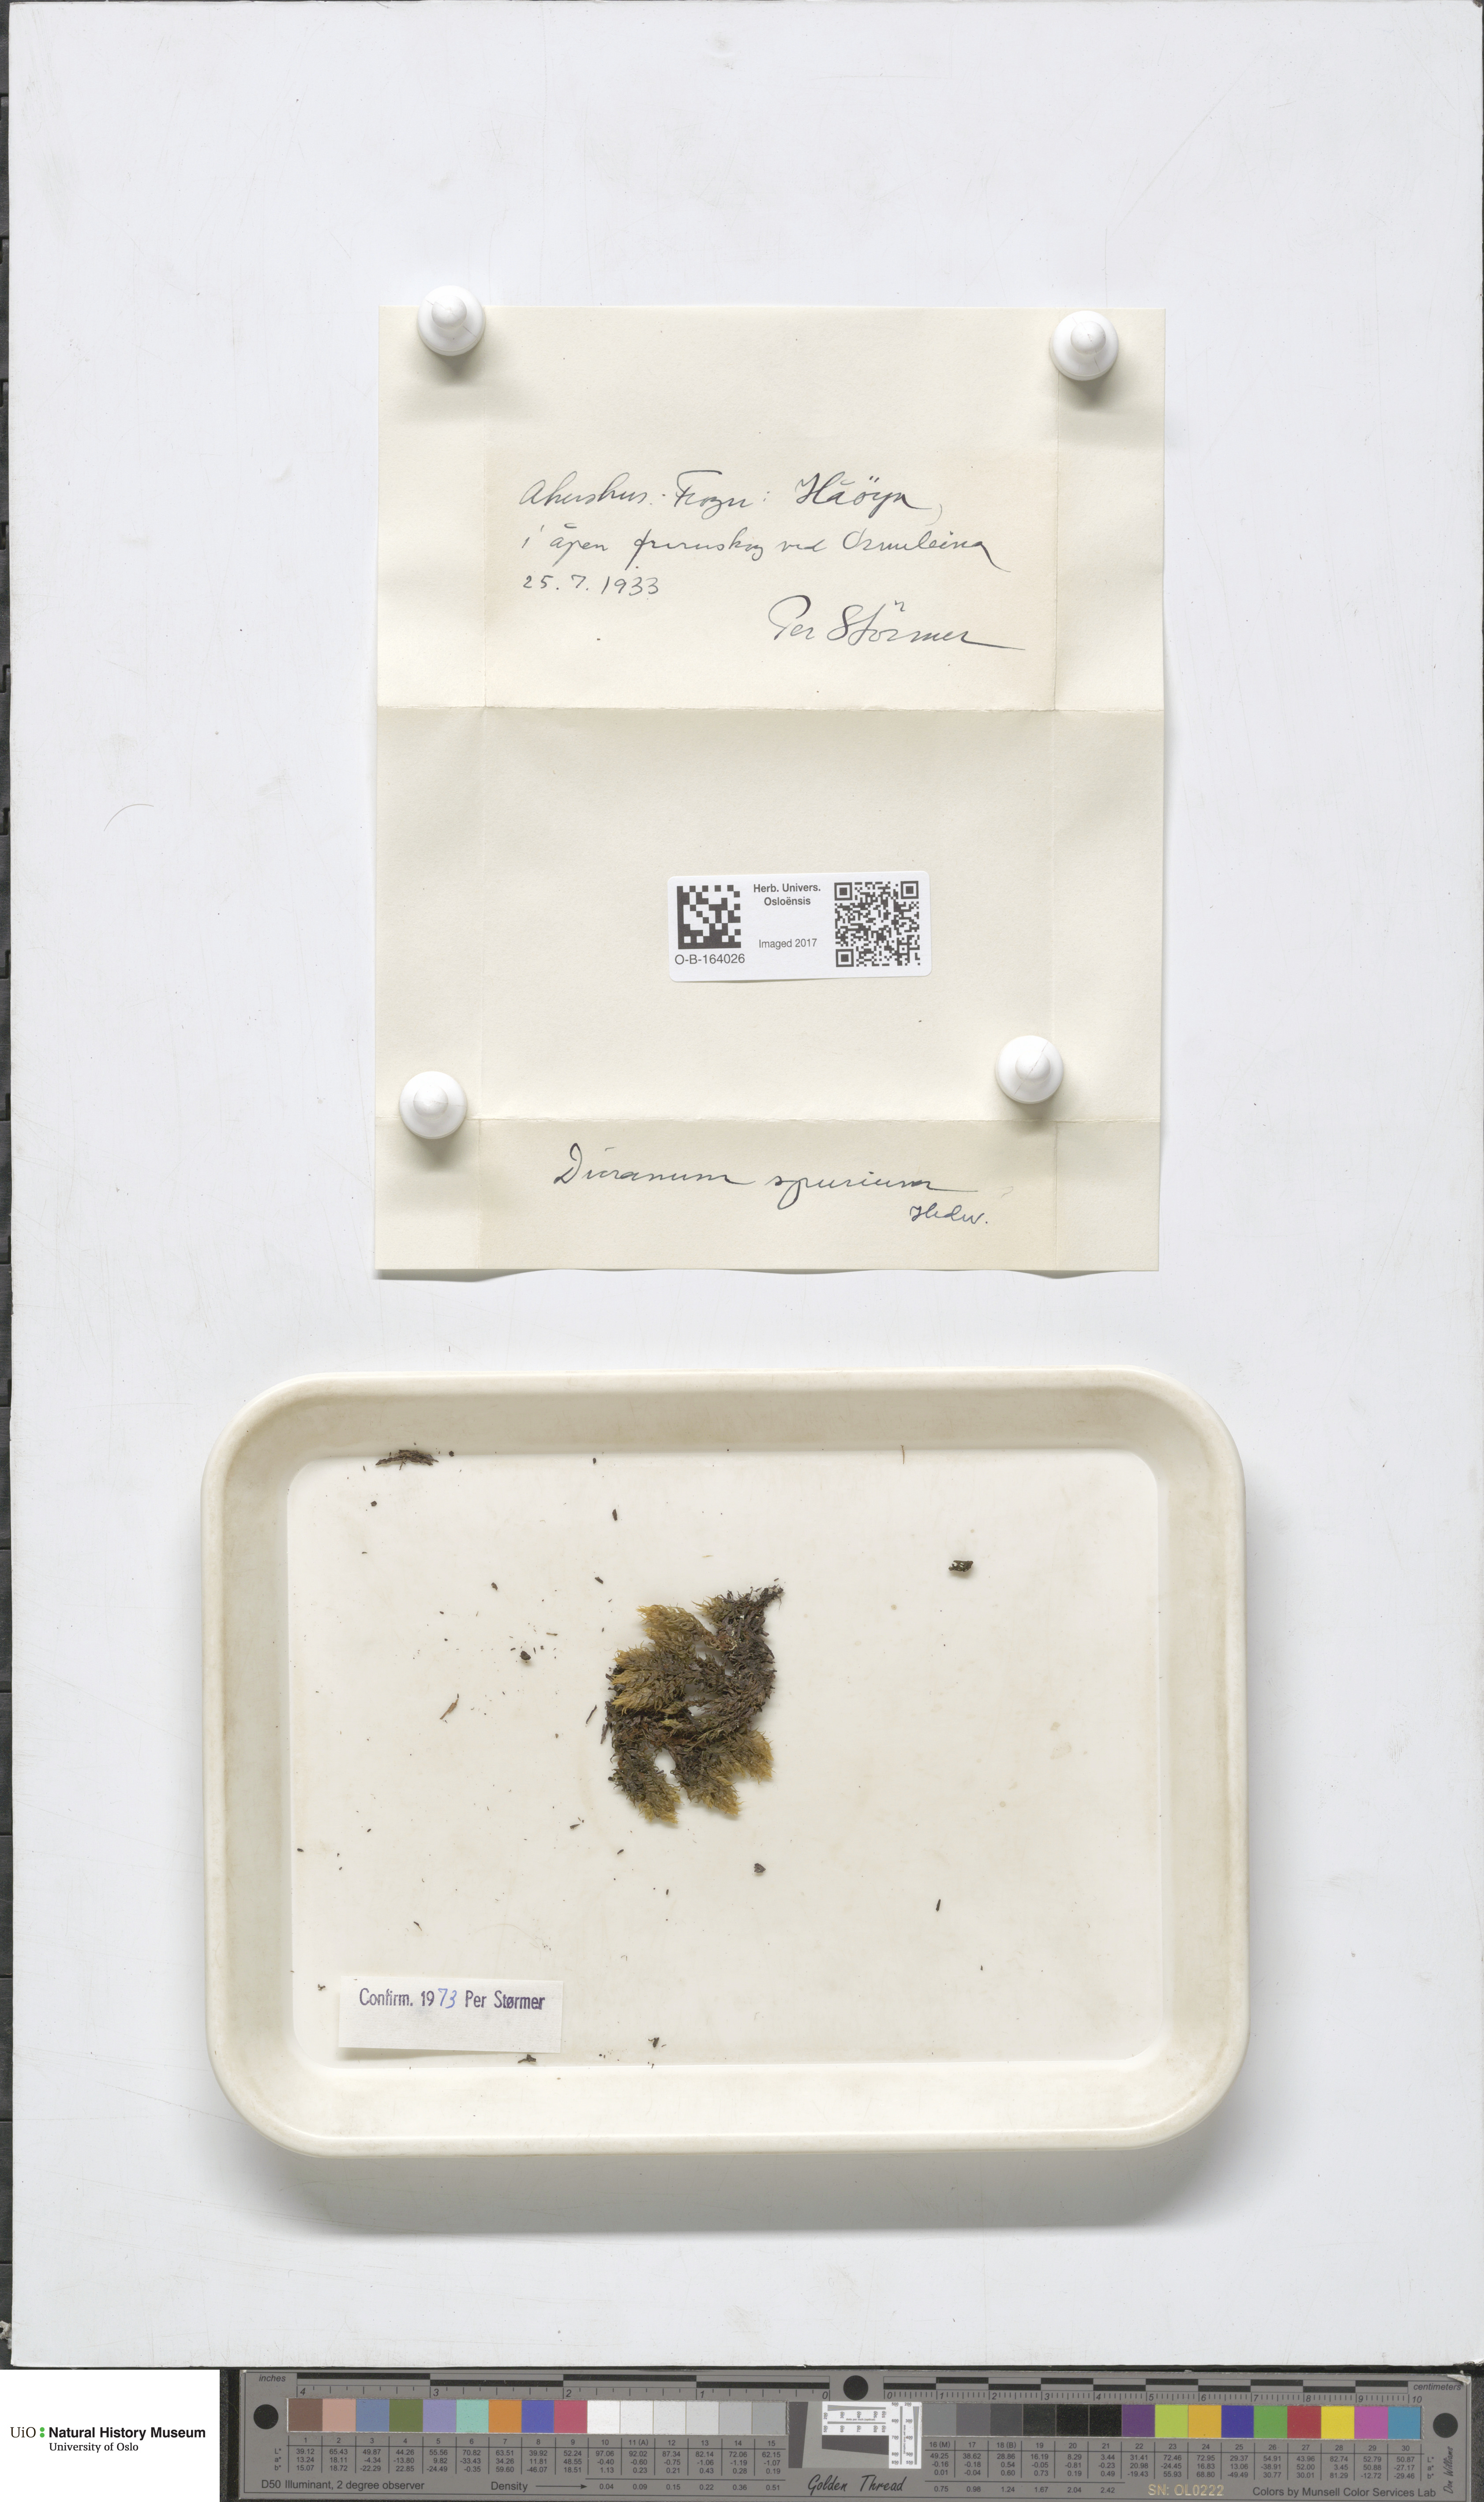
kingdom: Plantae
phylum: Bryophyta
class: Bryopsida
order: Dicranales
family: Dicranaceae
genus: Dicranum
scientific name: Dicranum spurium
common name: Spurred broom moss
